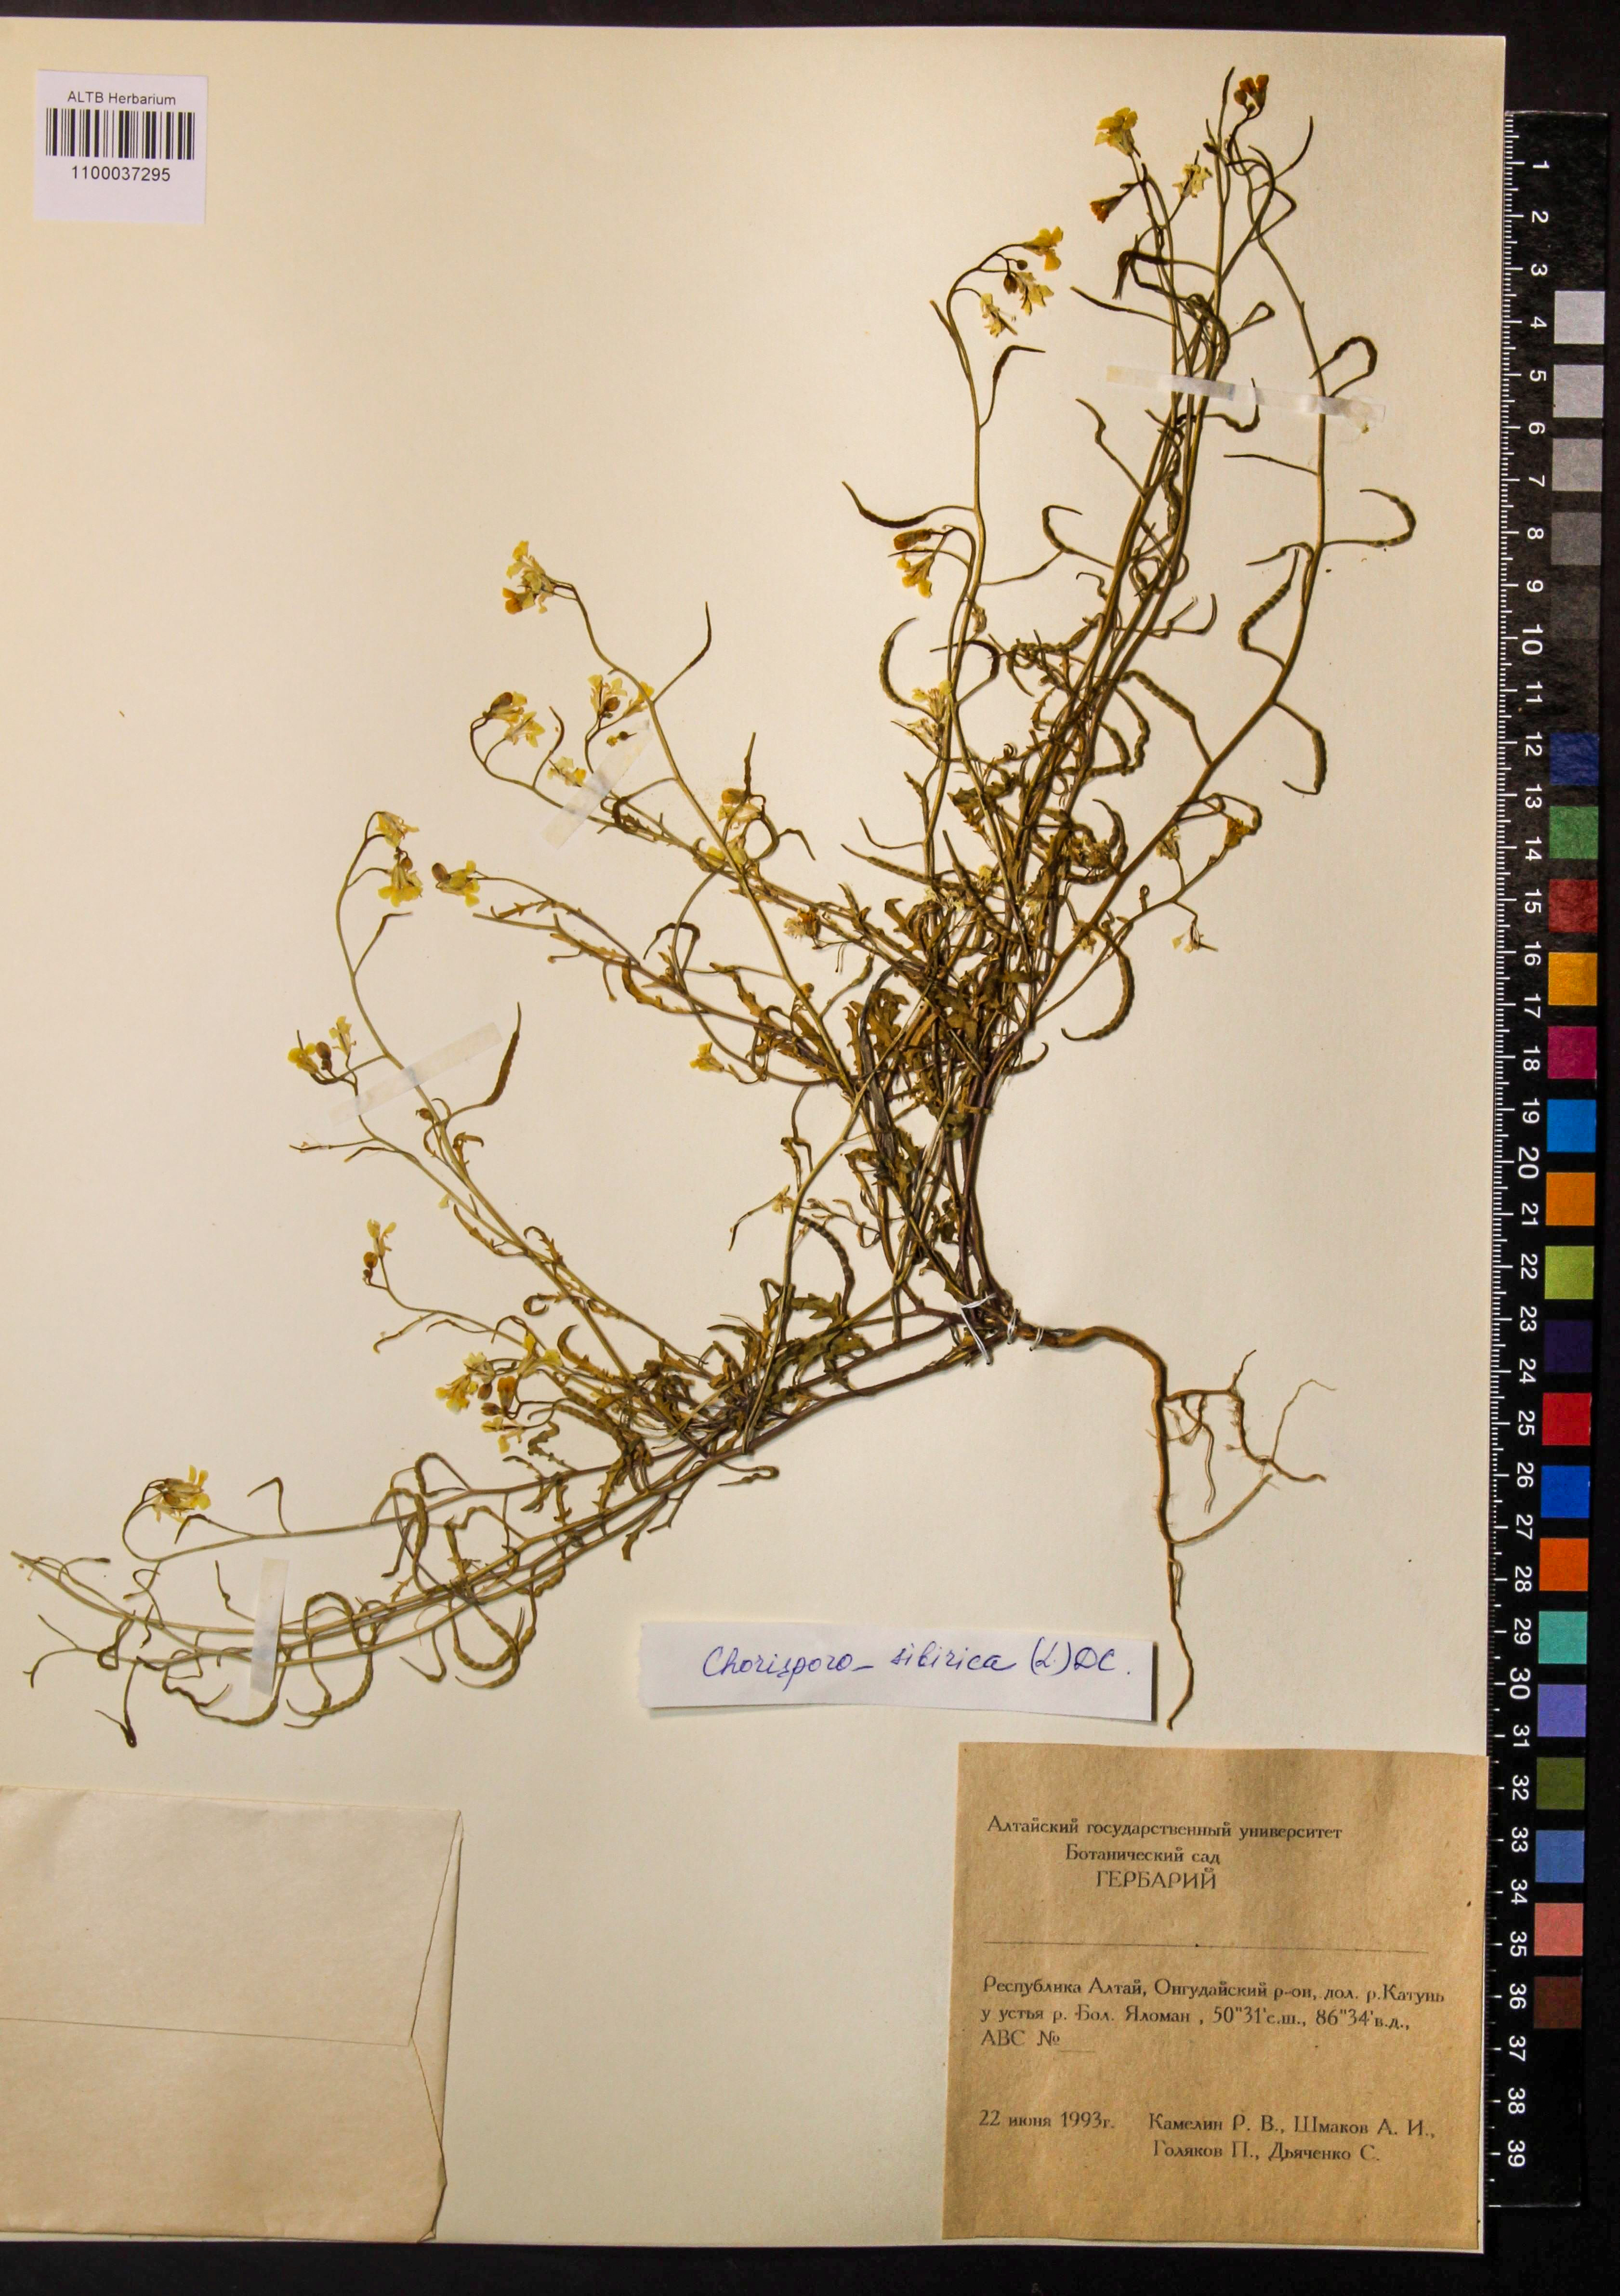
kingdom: Plantae
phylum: Tracheophyta
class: Magnoliopsida
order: Brassicales
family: Brassicaceae
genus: Chorispora
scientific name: Chorispora sibirica
